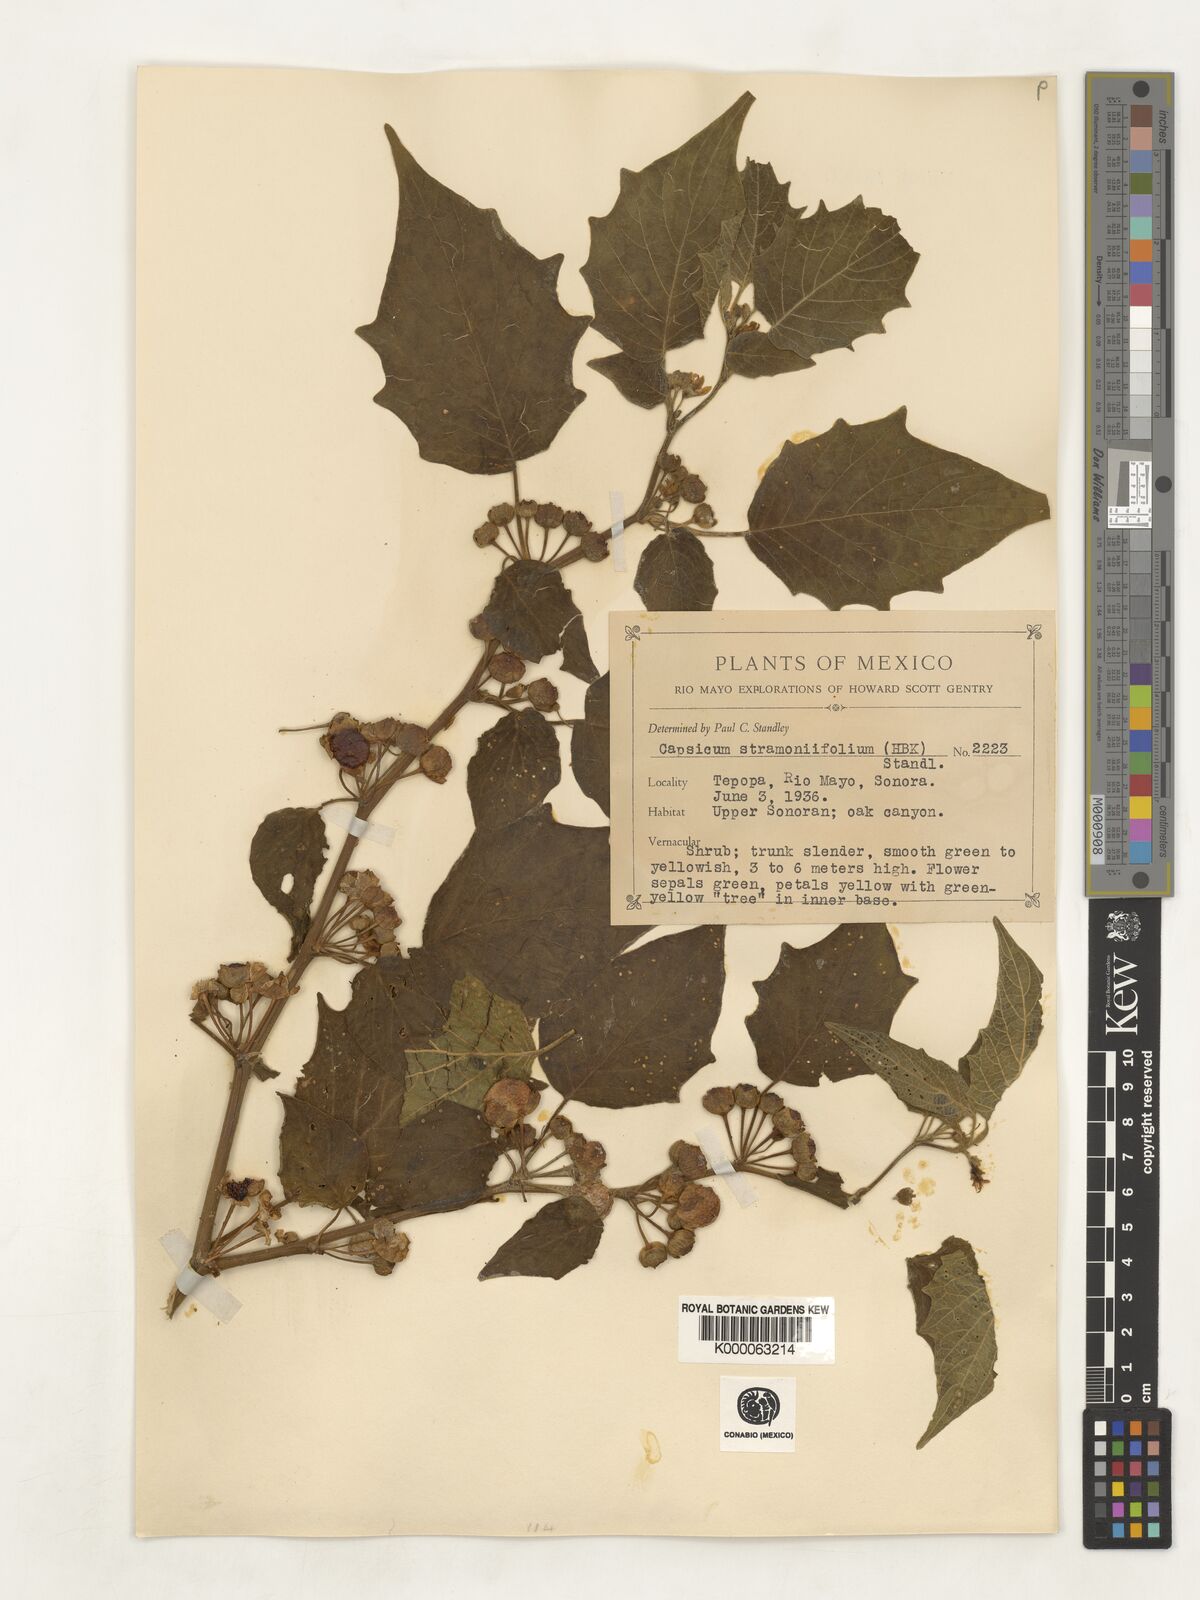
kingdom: Plantae
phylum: Tracheophyta
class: Magnoliopsida
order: Solanales
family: Solanaceae
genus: Brachistus
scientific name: Brachistus stramonifolius
